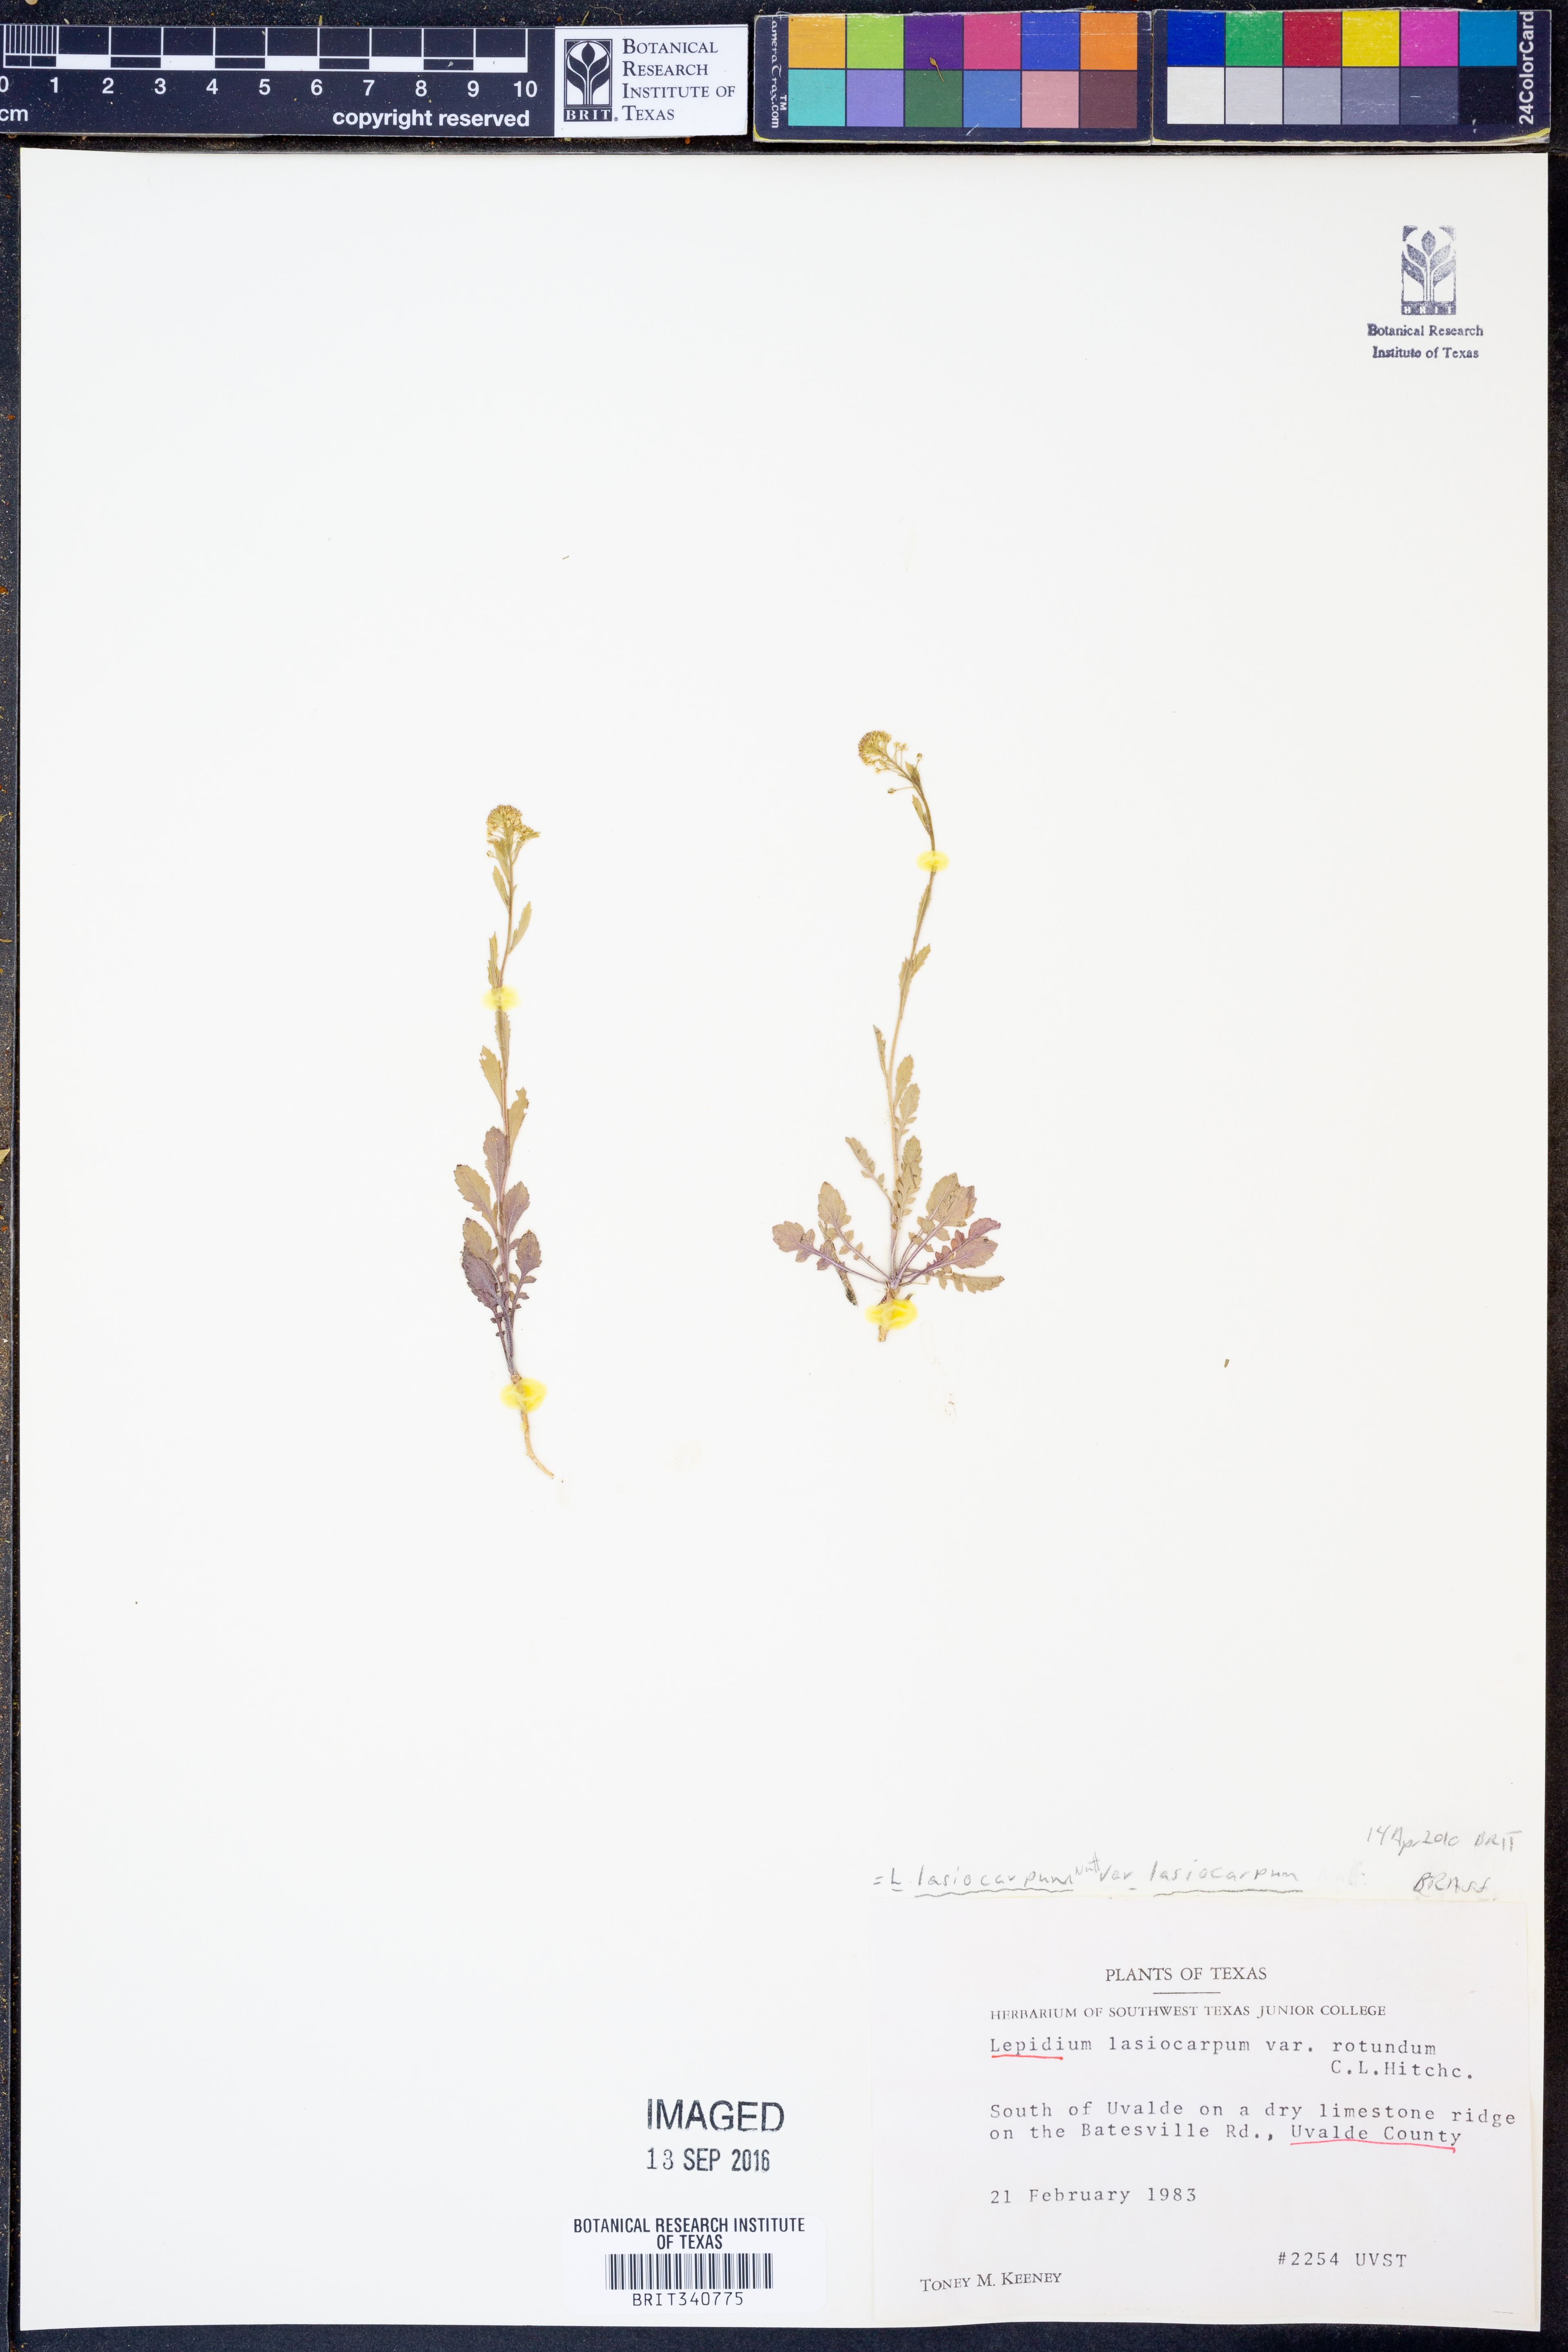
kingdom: Plantae
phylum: Tracheophyta
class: Magnoliopsida
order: Brassicales
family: Brassicaceae
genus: Lepidium
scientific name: Lepidium lasiocarpum
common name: Hairy-pod pepperwort
